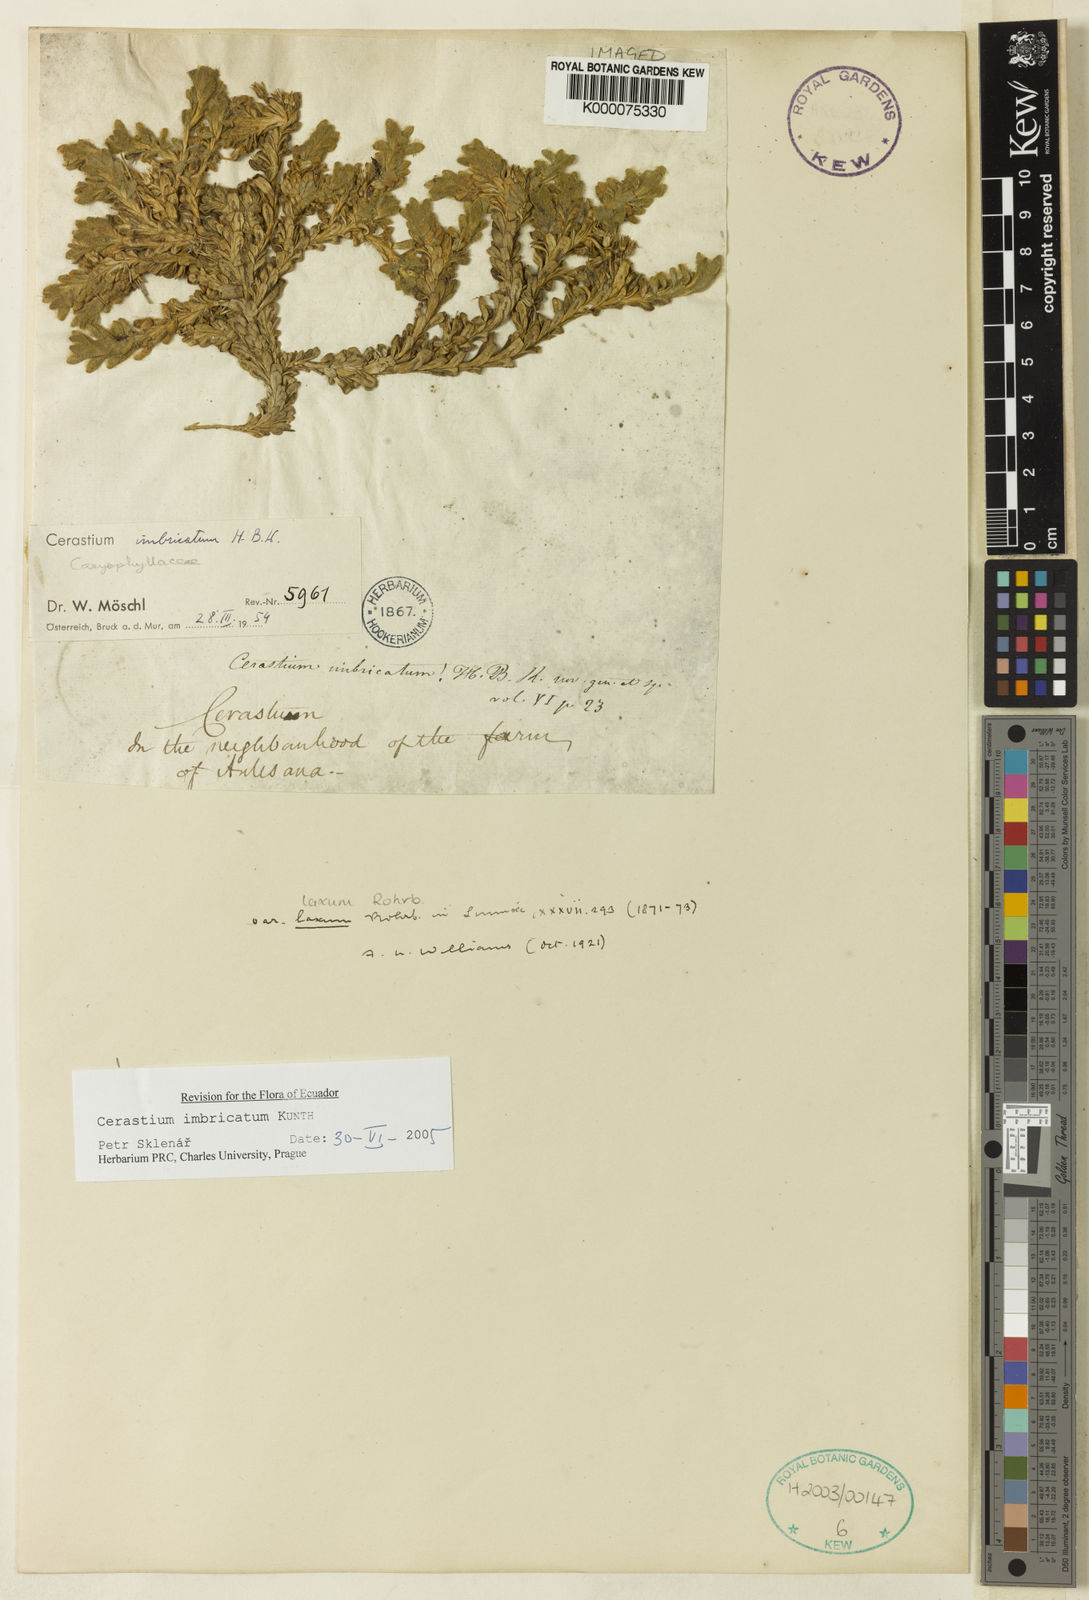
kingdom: Plantae
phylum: Tracheophyta
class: Magnoliopsida
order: Caryophyllales
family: Caryophyllaceae
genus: Cerastium
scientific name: Cerastium imbricatum
